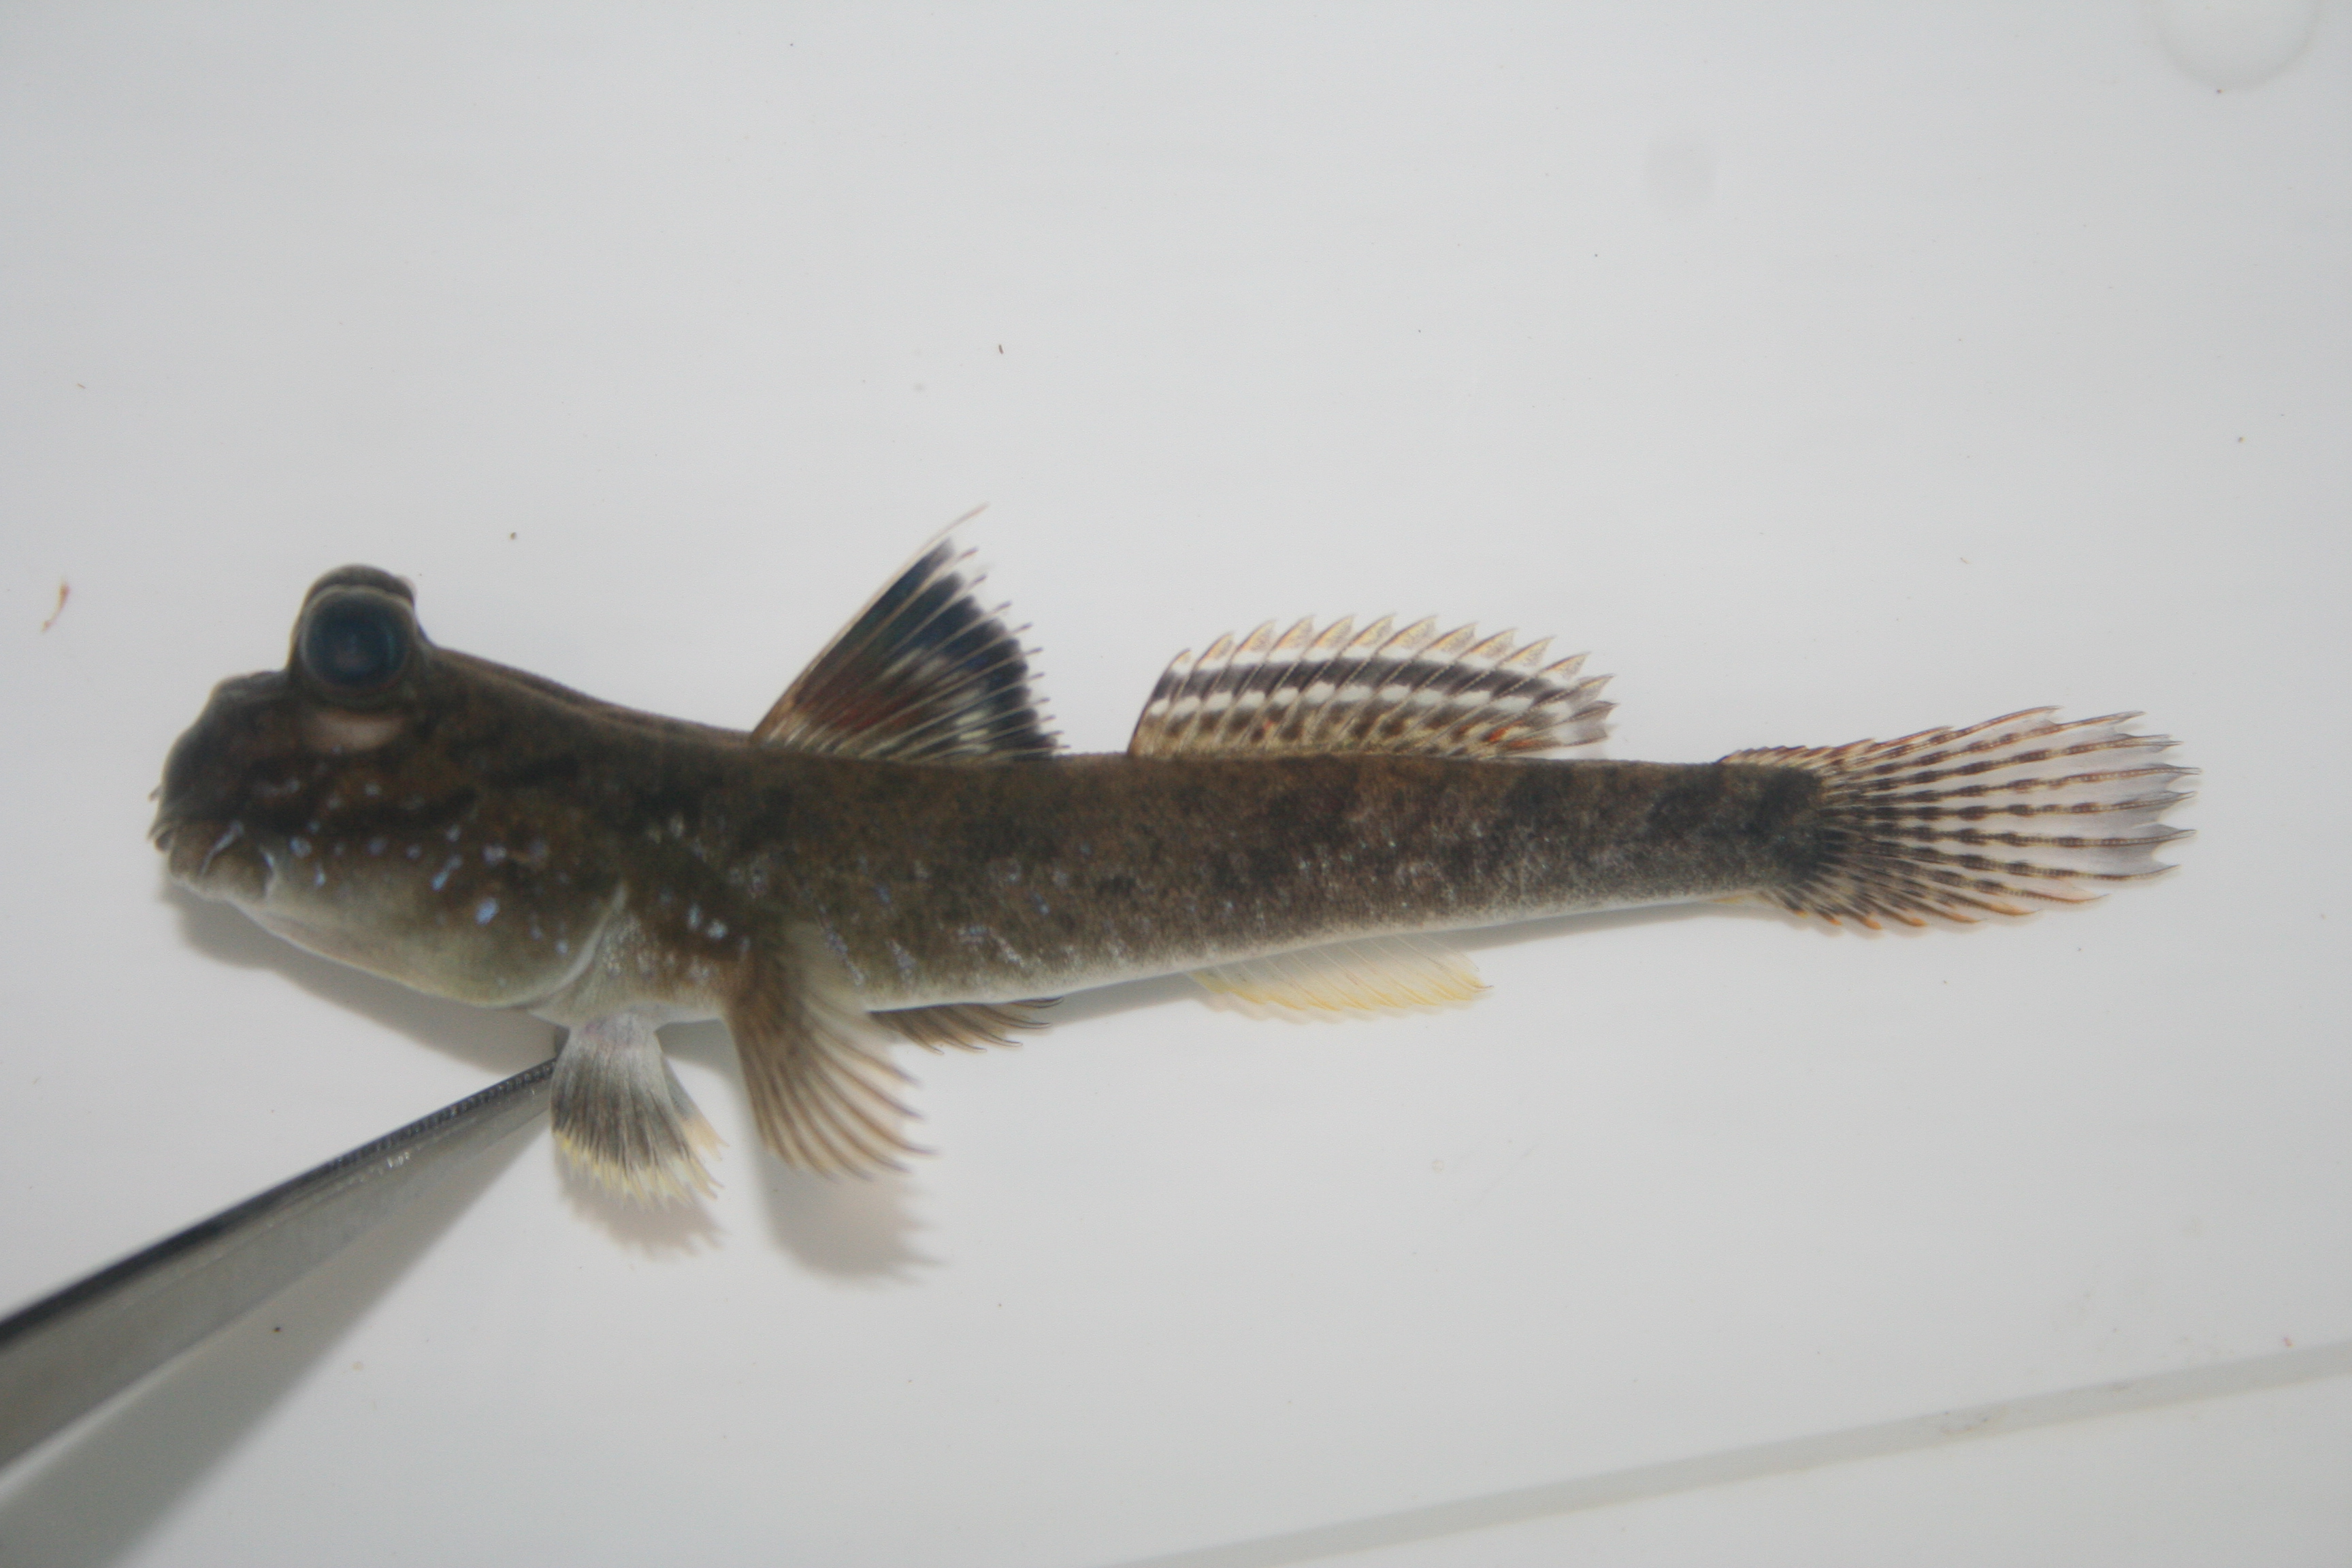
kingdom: Animalia
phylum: Chordata
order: Perciformes
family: Gobiidae
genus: Periophthalmus
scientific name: Periophthalmus barbarus
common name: Atlantic mudskipper
